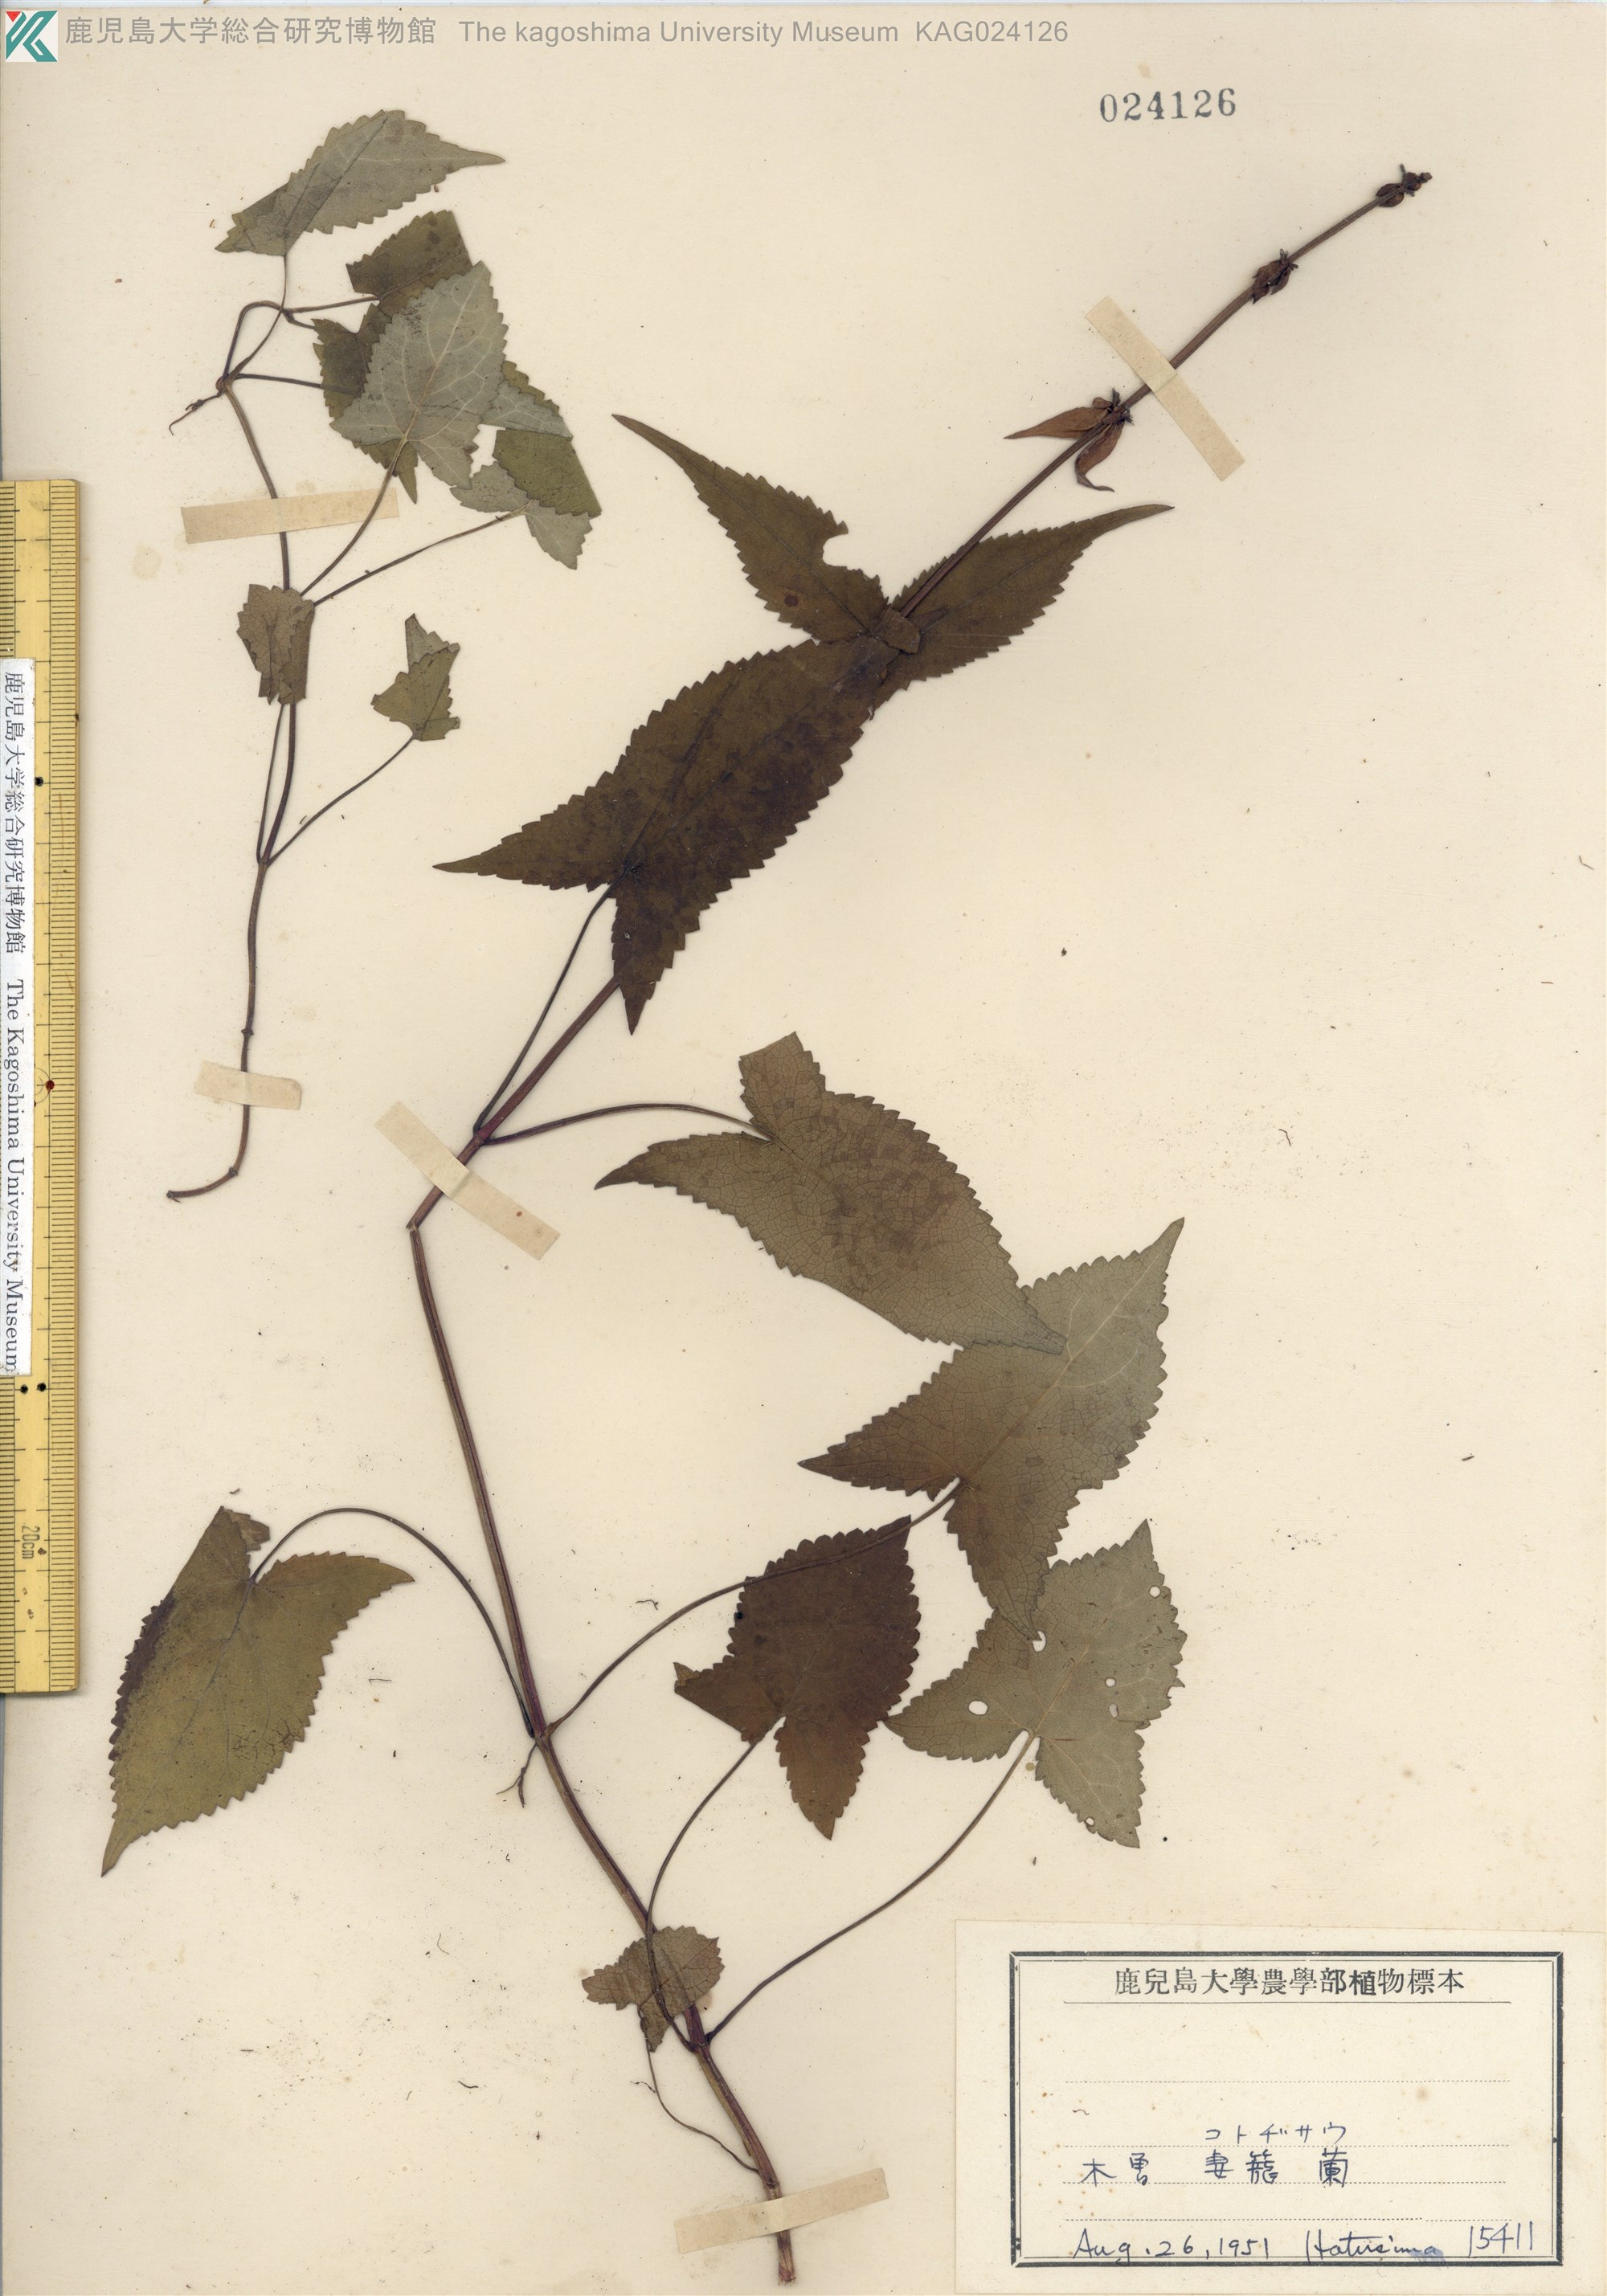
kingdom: Plantae
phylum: Tracheophyta
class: Magnoliopsida
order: Lamiales
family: Lamiaceae
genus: Salvia
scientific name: Salvia nipponica
